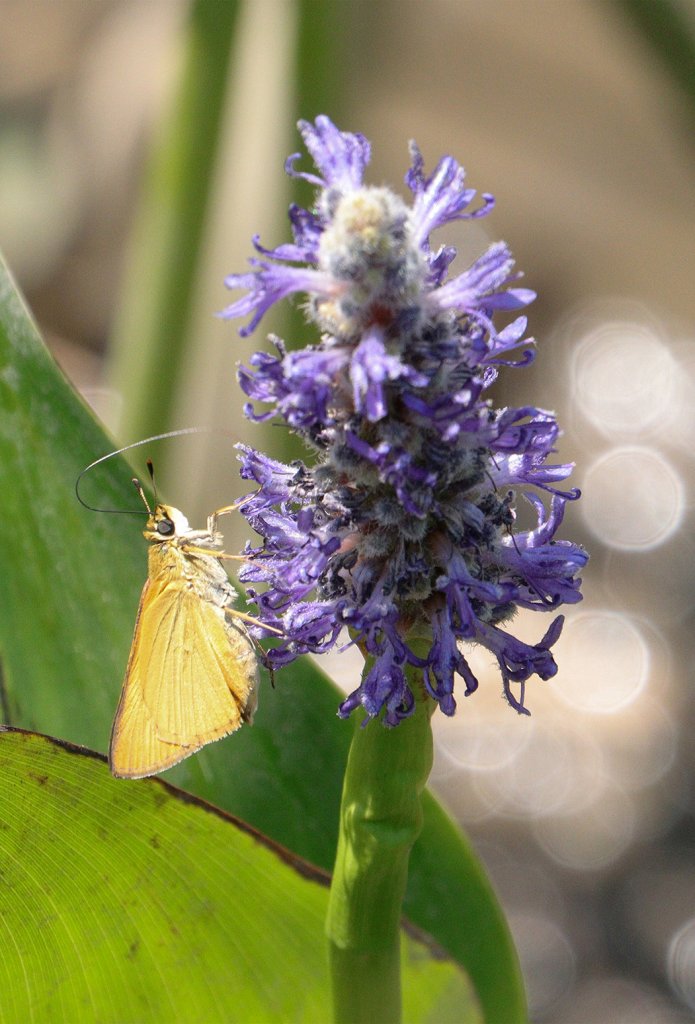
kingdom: Animalia
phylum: Arthropoda
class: Insecta
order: Lepidoptera
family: Hesperiidae
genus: Atrytone
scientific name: Atrytone delaware
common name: Delaware Skipper
